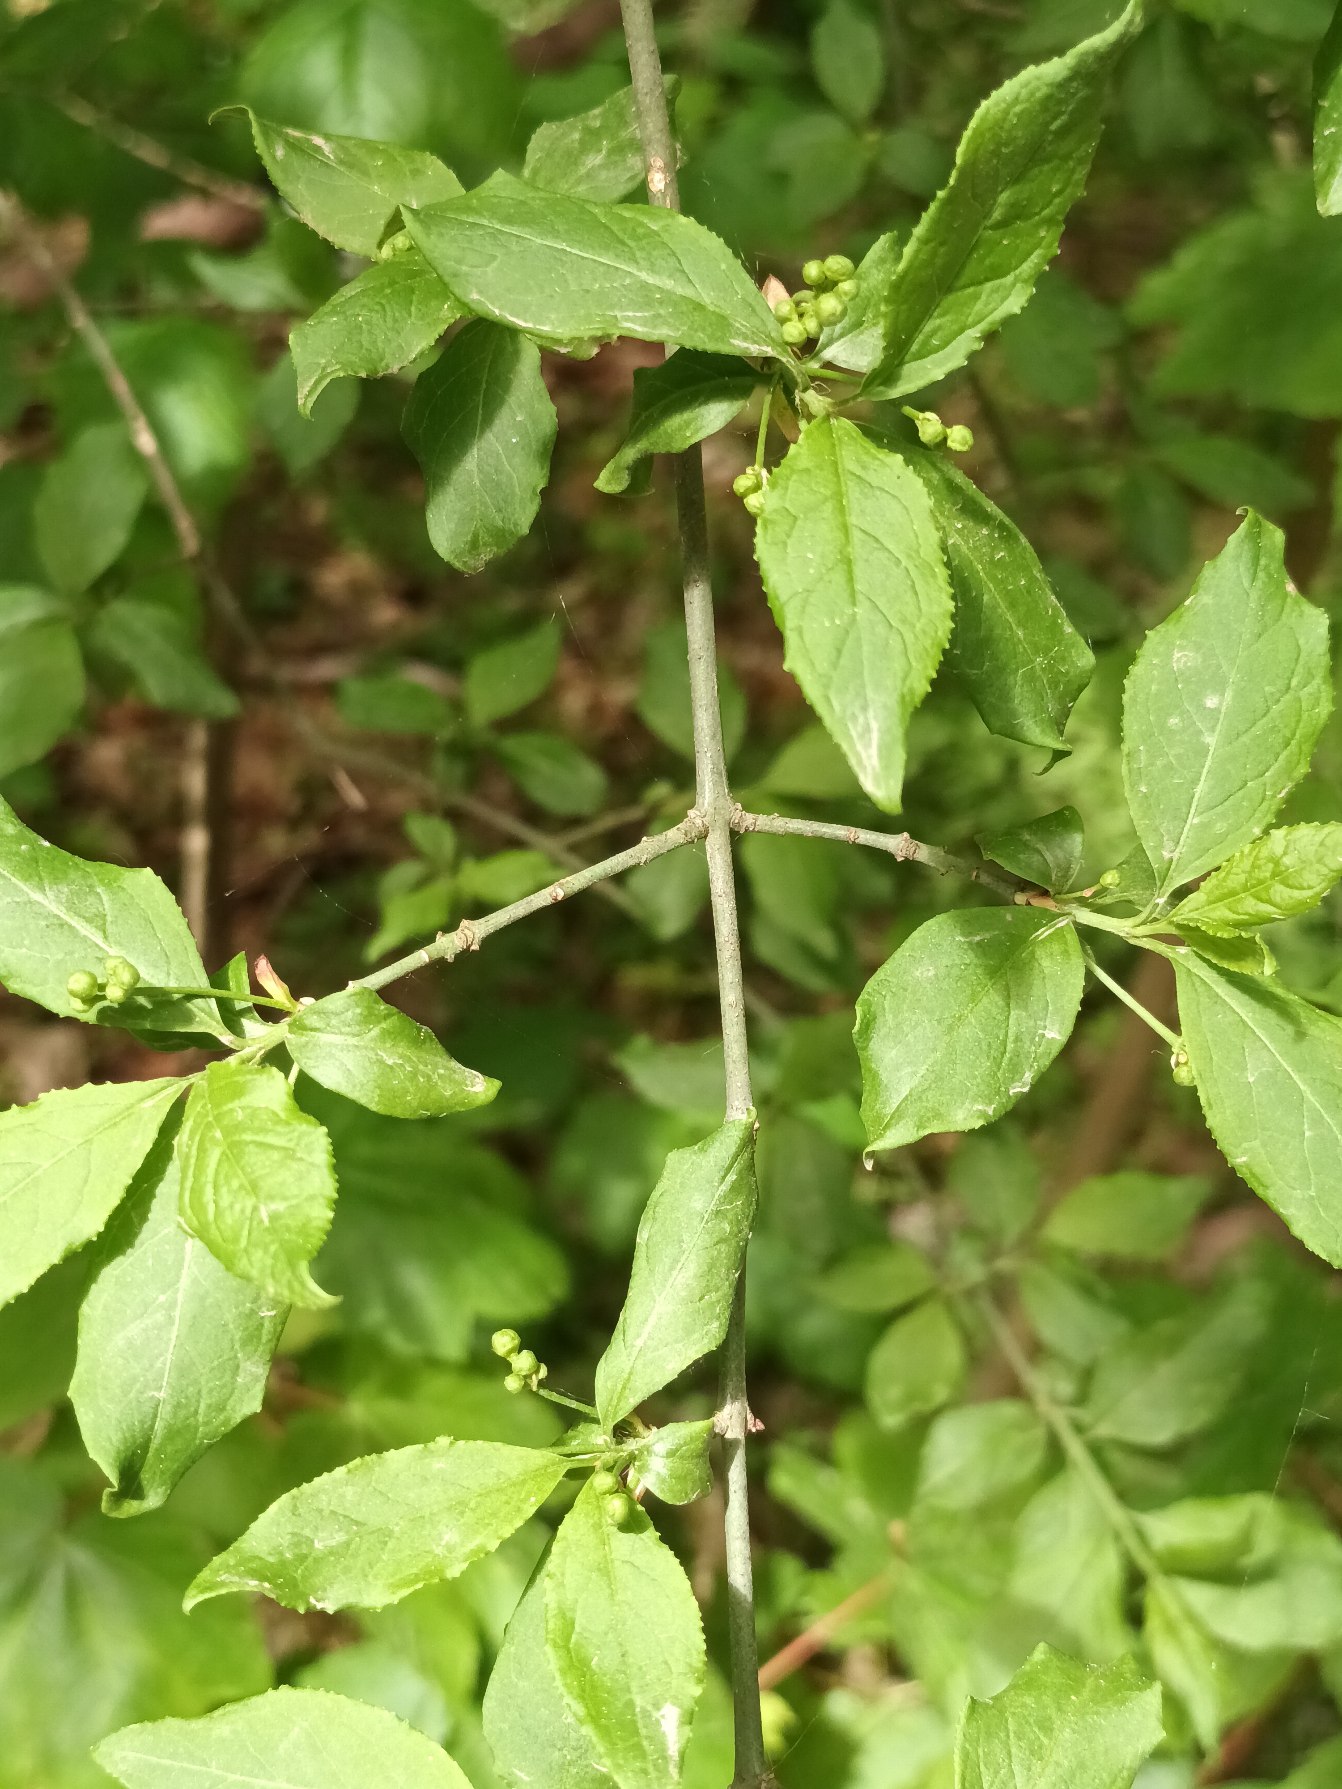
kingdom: Plantae
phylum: Tracheophyta
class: Magnoliopsida
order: Celastrales
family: Celastraceae
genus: Euonymus
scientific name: Euonymus europaeus
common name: Benved
